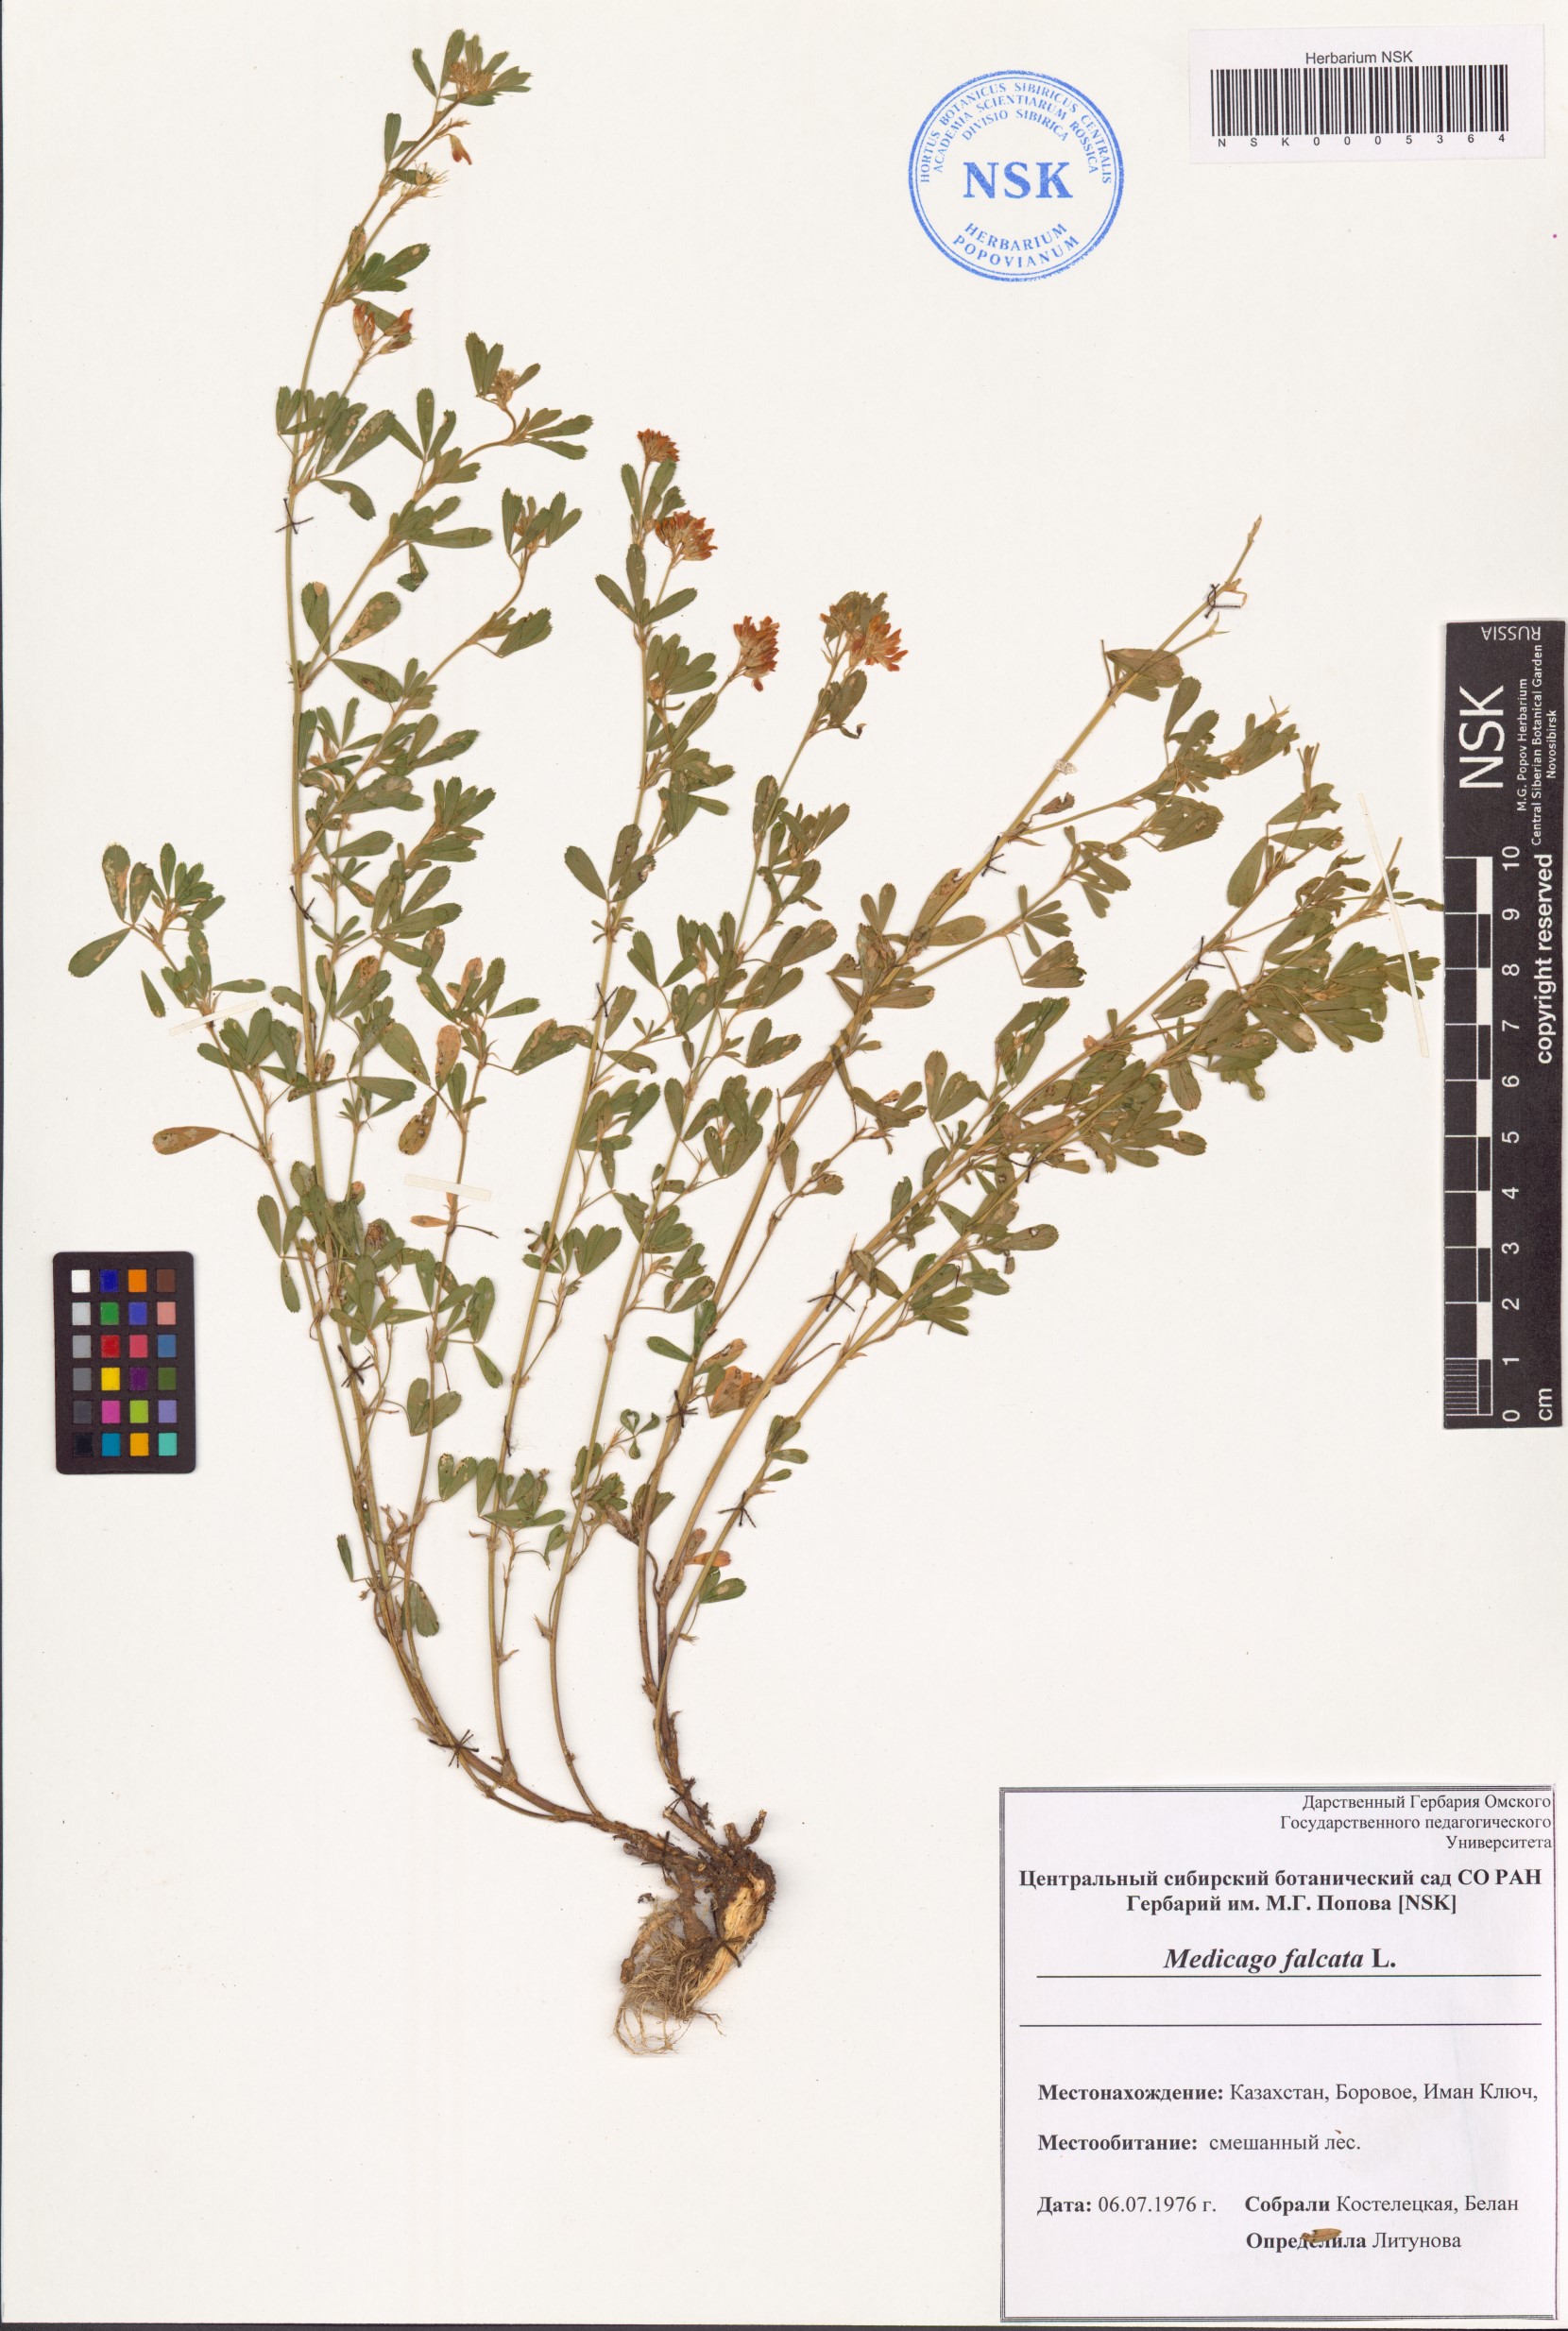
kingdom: Plantae
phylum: Tracheophyta
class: Magnoliopsida
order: Fabales
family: Fabaceae
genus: Medicago
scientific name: Medicago falcata
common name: Sickle medick
